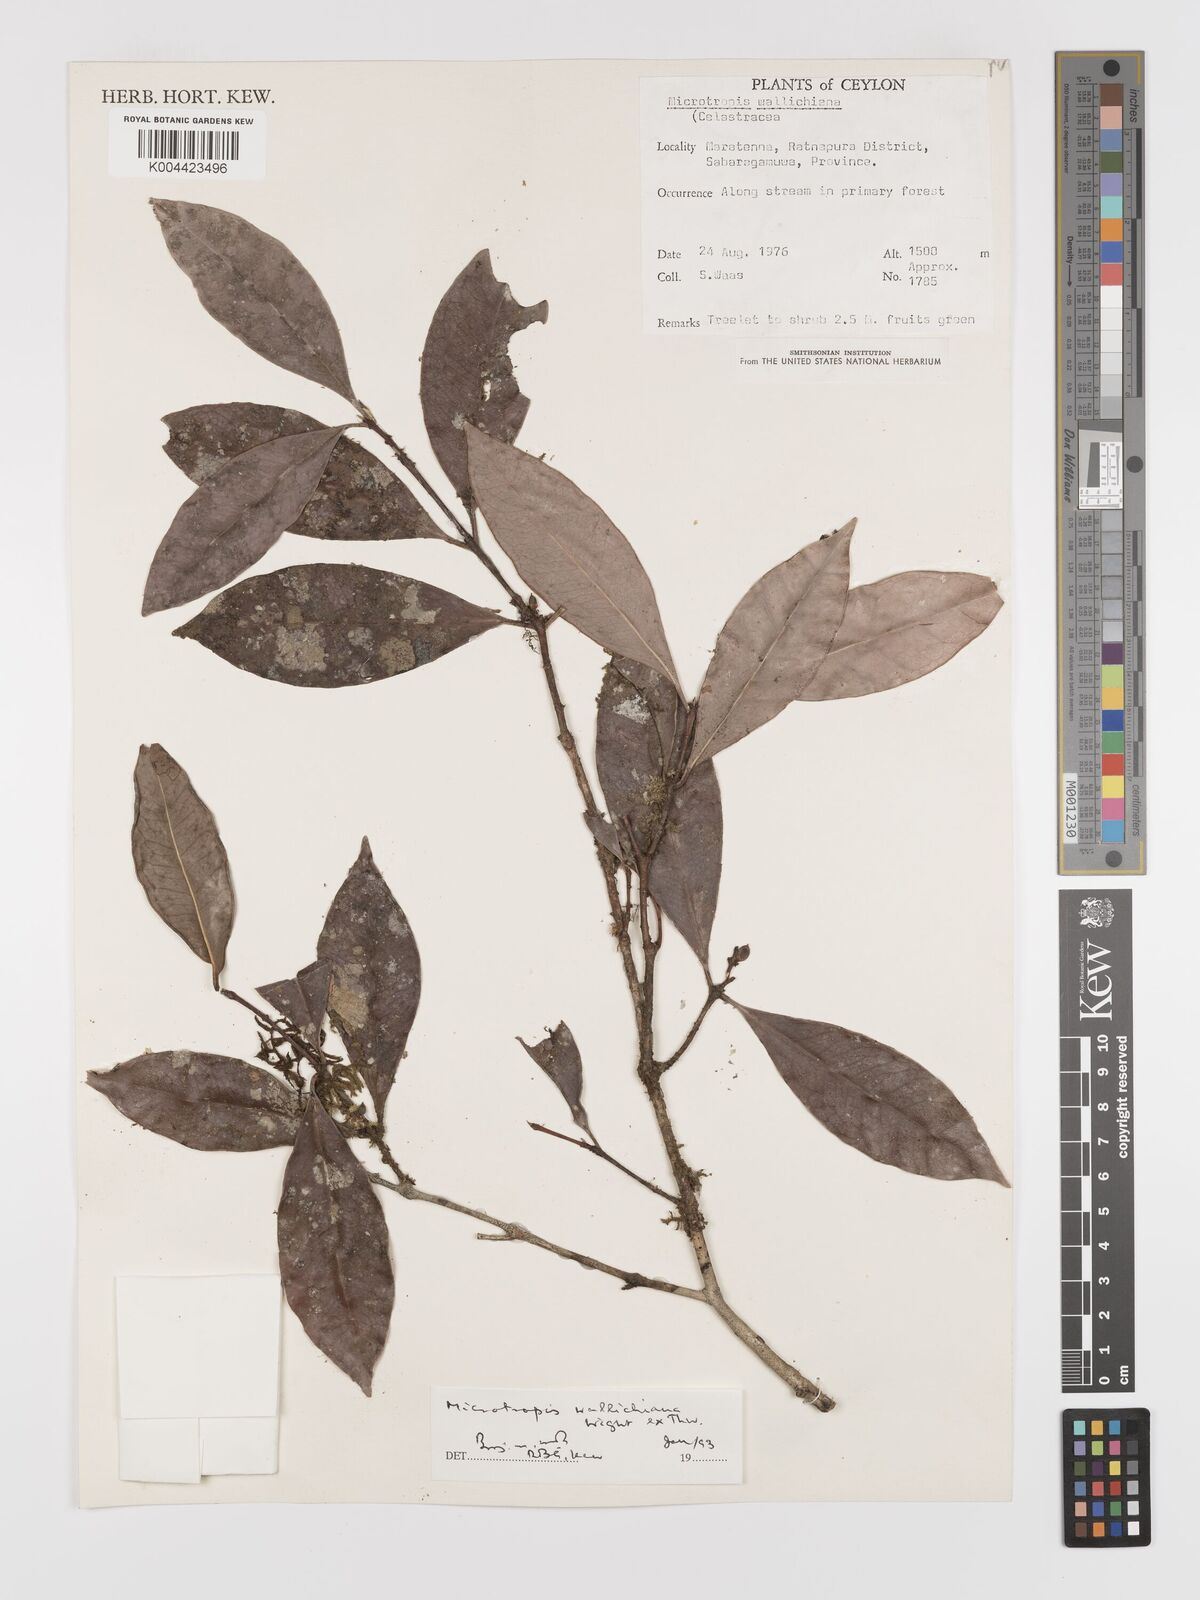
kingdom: Plantae
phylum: Tracheophyta
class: Magnoliopsida
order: Celastrales
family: Celastraceae
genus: Microtropis
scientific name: Microtropis wallichiana
